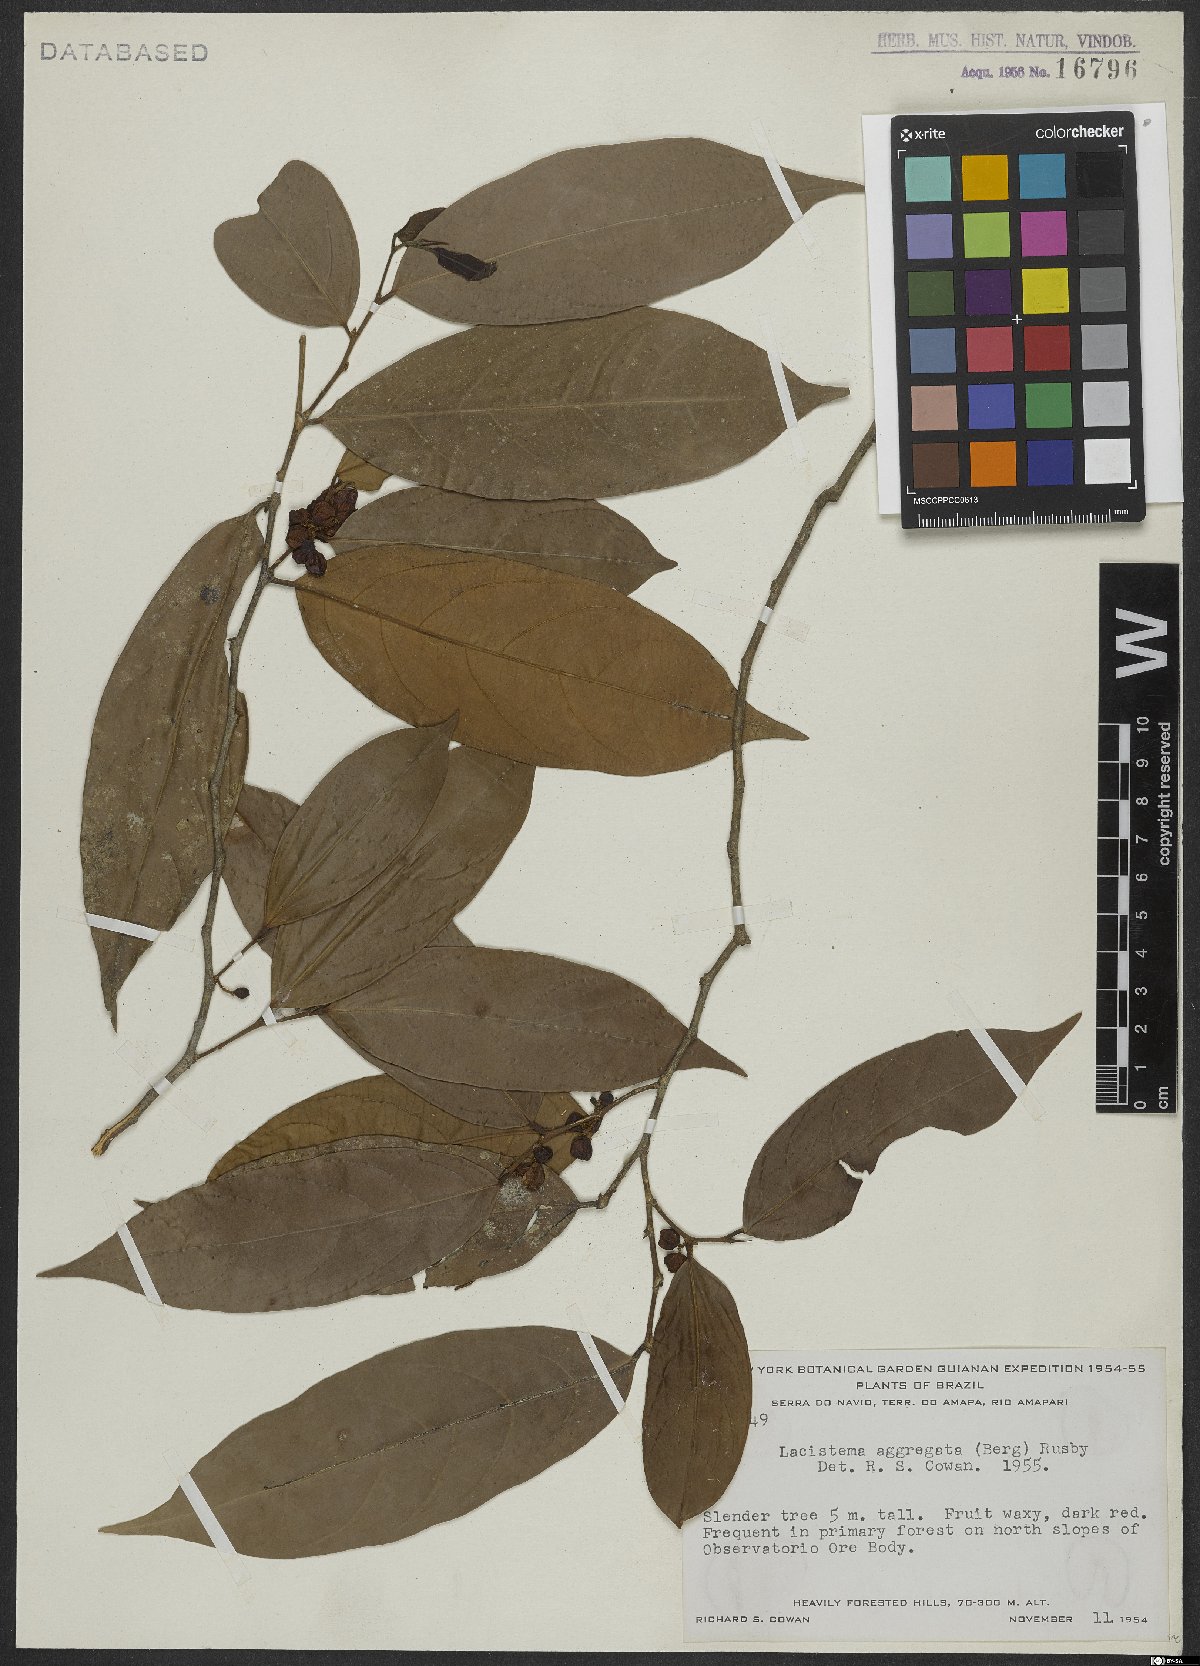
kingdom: Plantae
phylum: Tracheophyta
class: Magnoliopsida
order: Malpighiales
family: Lacistemataceae
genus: Lacistema
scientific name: Lacistema aggregatum
